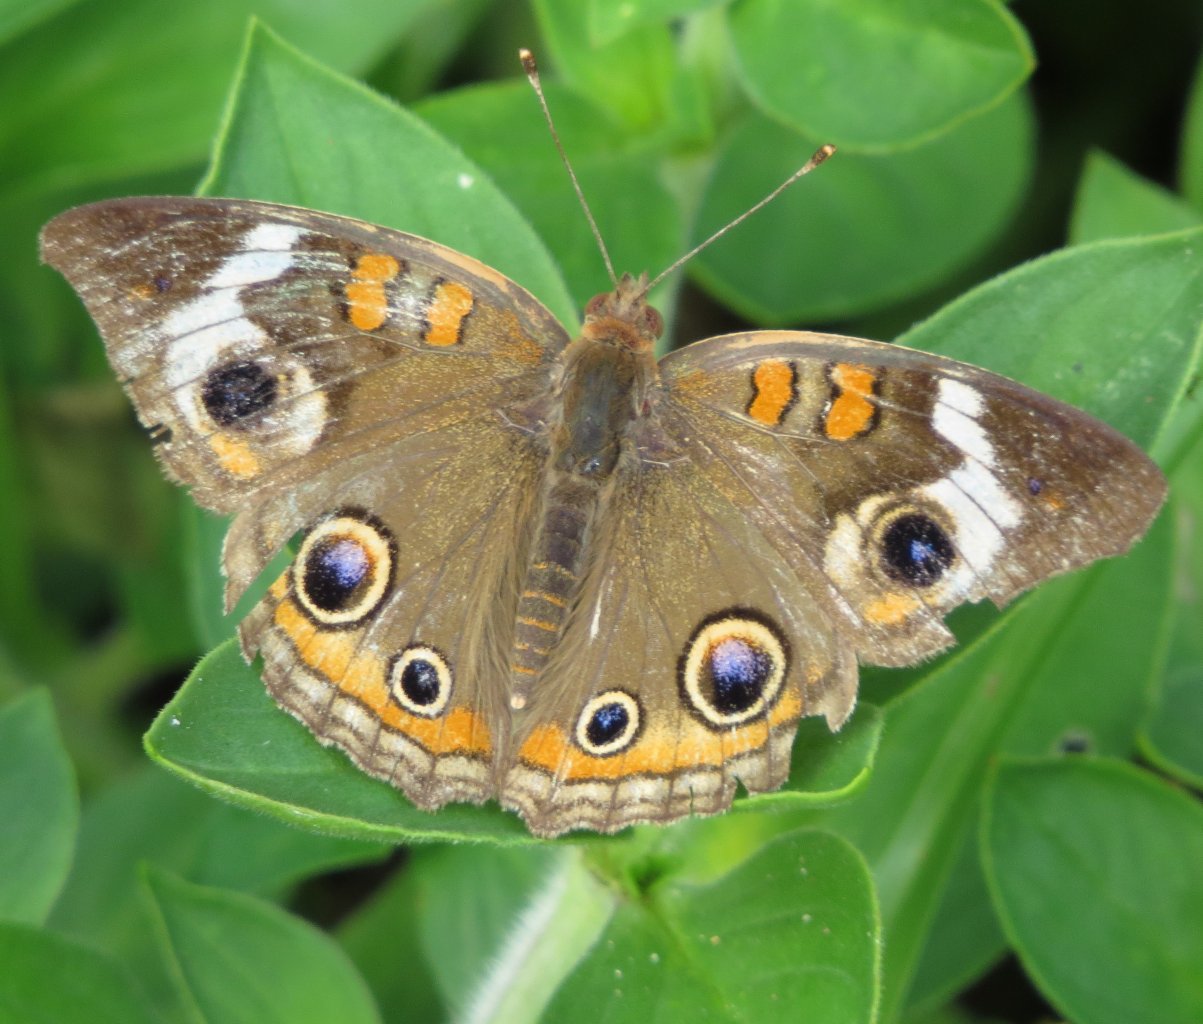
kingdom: Animalia
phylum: Arthropoda
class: Insecta
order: Lepidoptera
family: Nymphalidae
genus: Junonia
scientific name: Junonia coenia
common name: Common Buckeye
